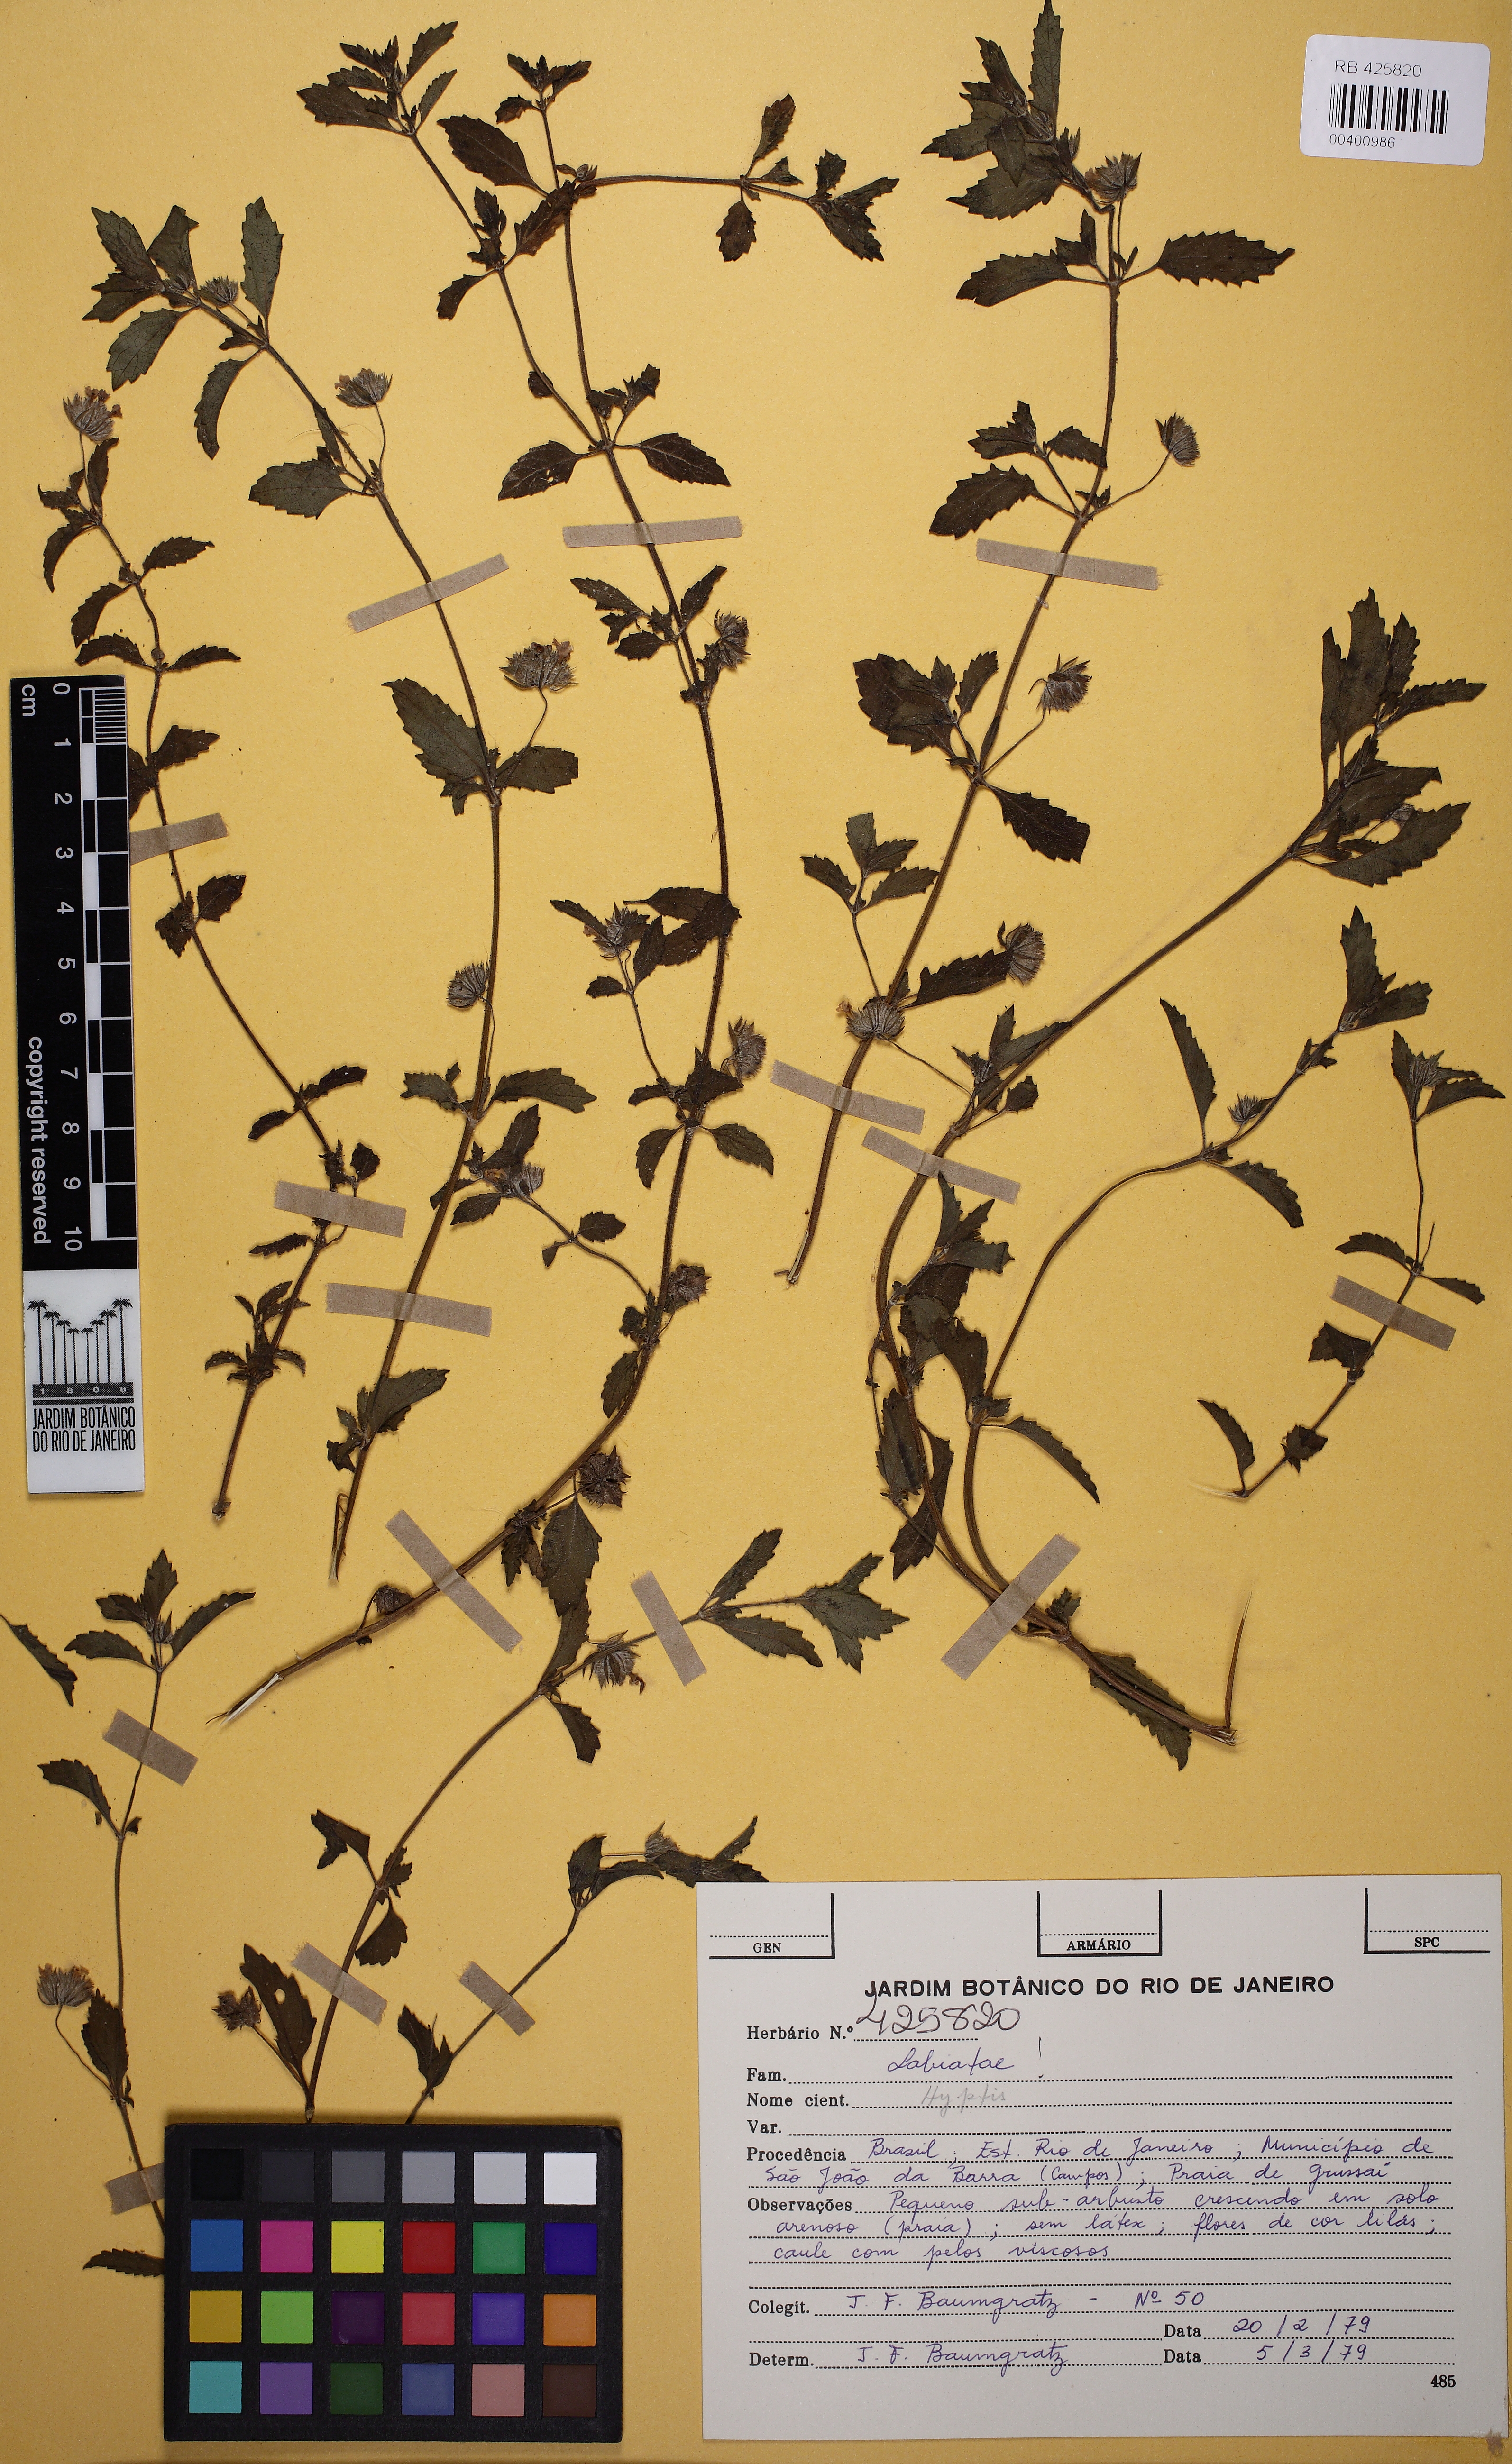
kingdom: Plantae
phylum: Tracheophyta
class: Magnoliopsida
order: Lamiales
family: Lamiaceae
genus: Marsypianthes
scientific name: Marsypianthes
